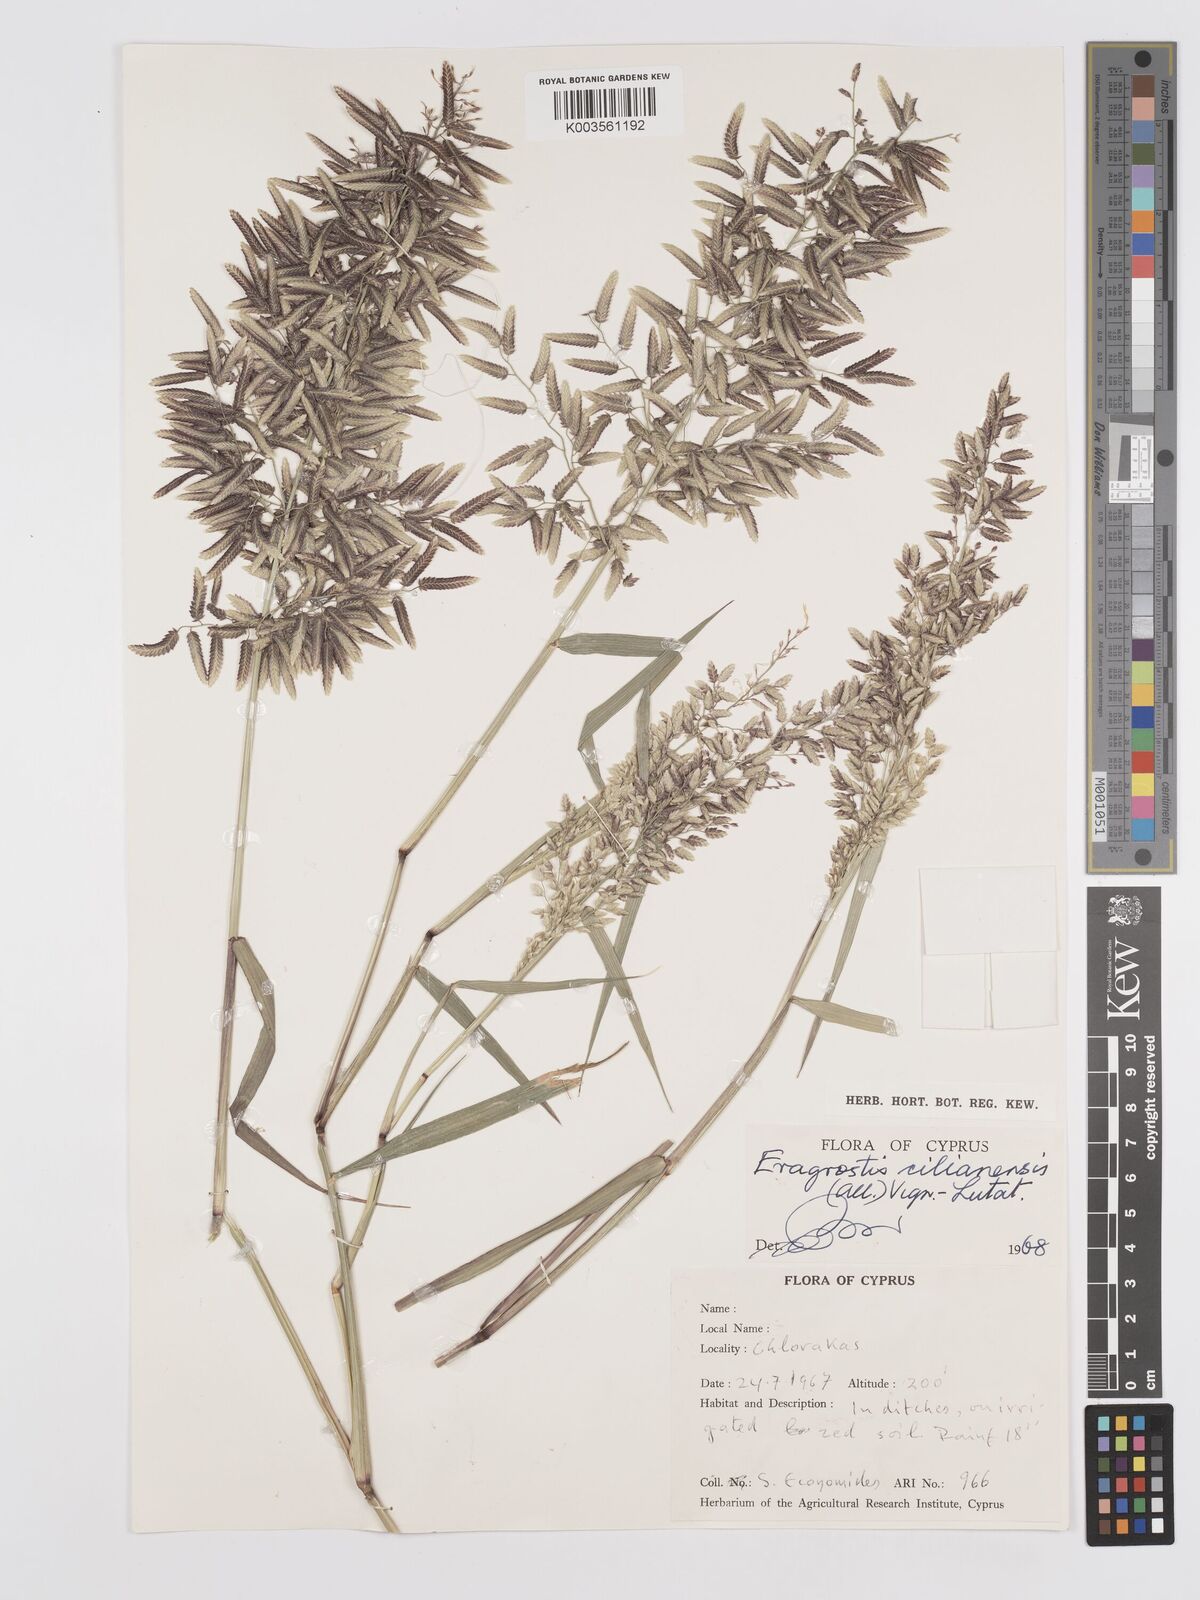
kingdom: Plantae
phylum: Tracheophyta
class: Liliopsida
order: Poales
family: Poaceae
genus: Eragrostis
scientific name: Eragrostis cilianensis
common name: Stinkgrass
